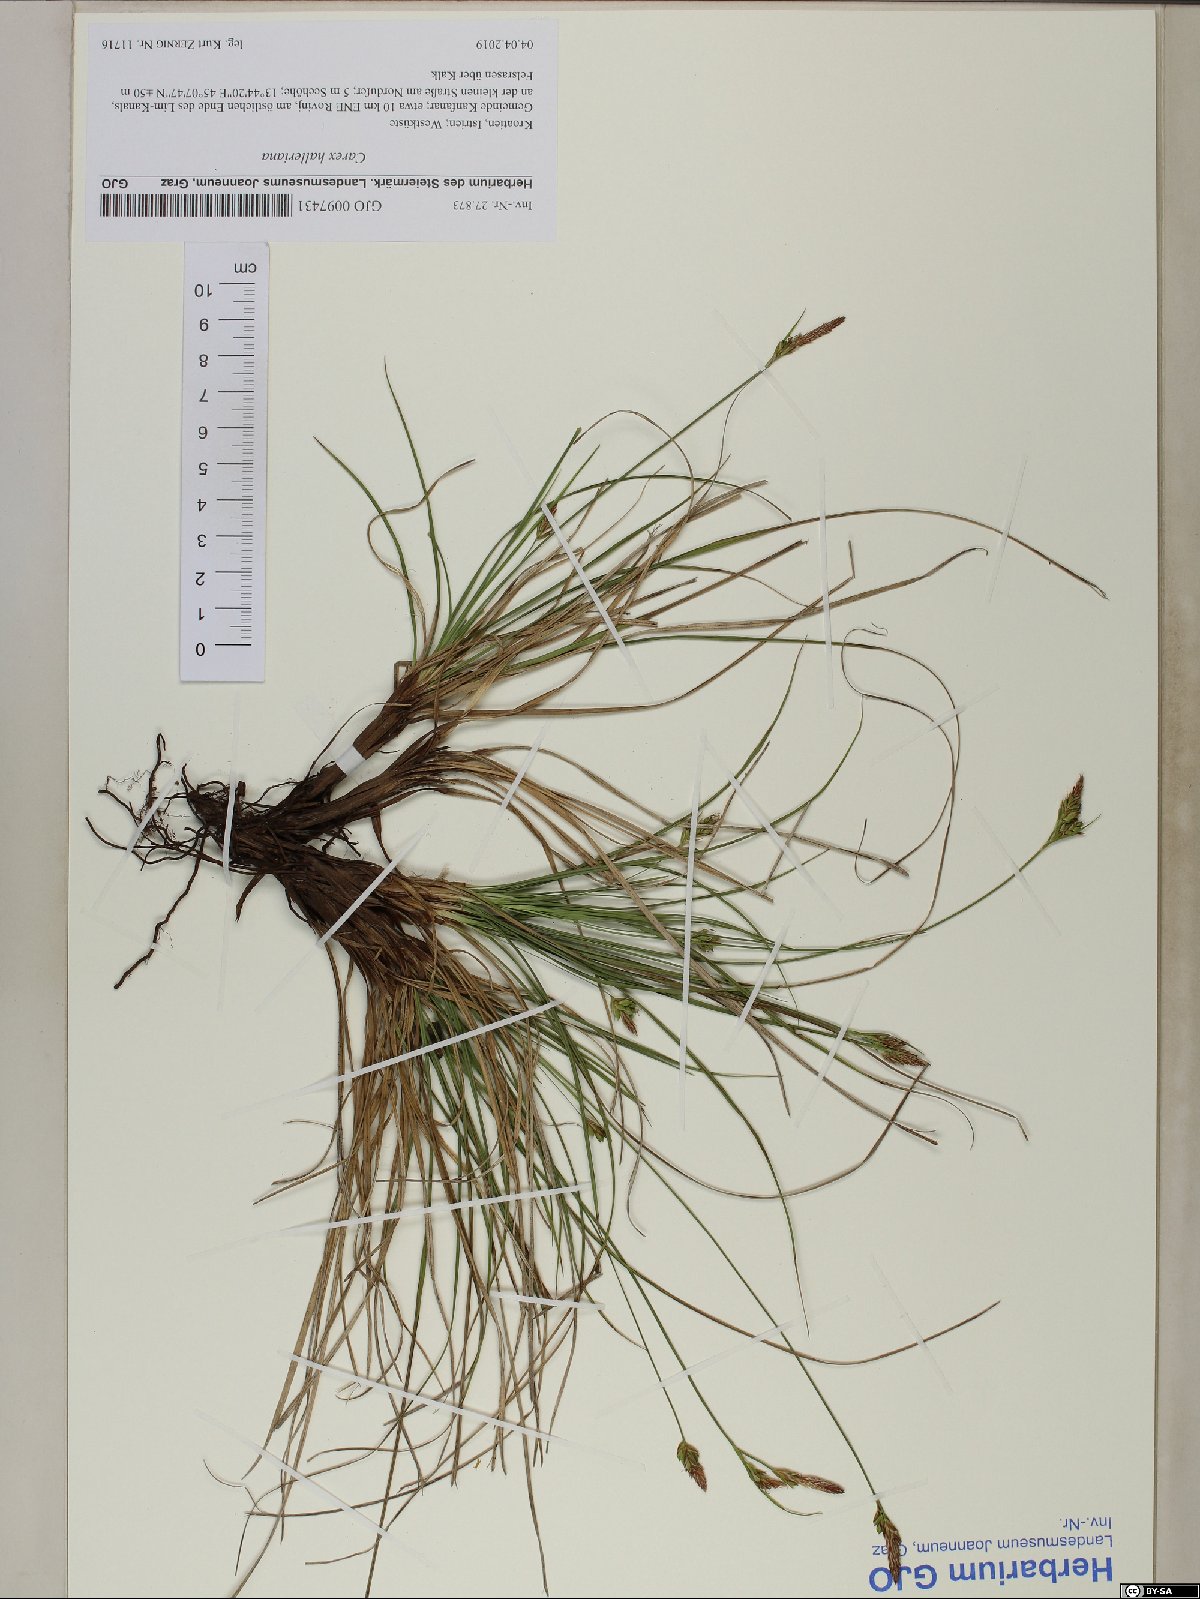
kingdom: Plantae
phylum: Tracheophyta
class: Liliopsida
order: Poales
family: Cyperaceae
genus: Carex
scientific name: Carex halleriana
